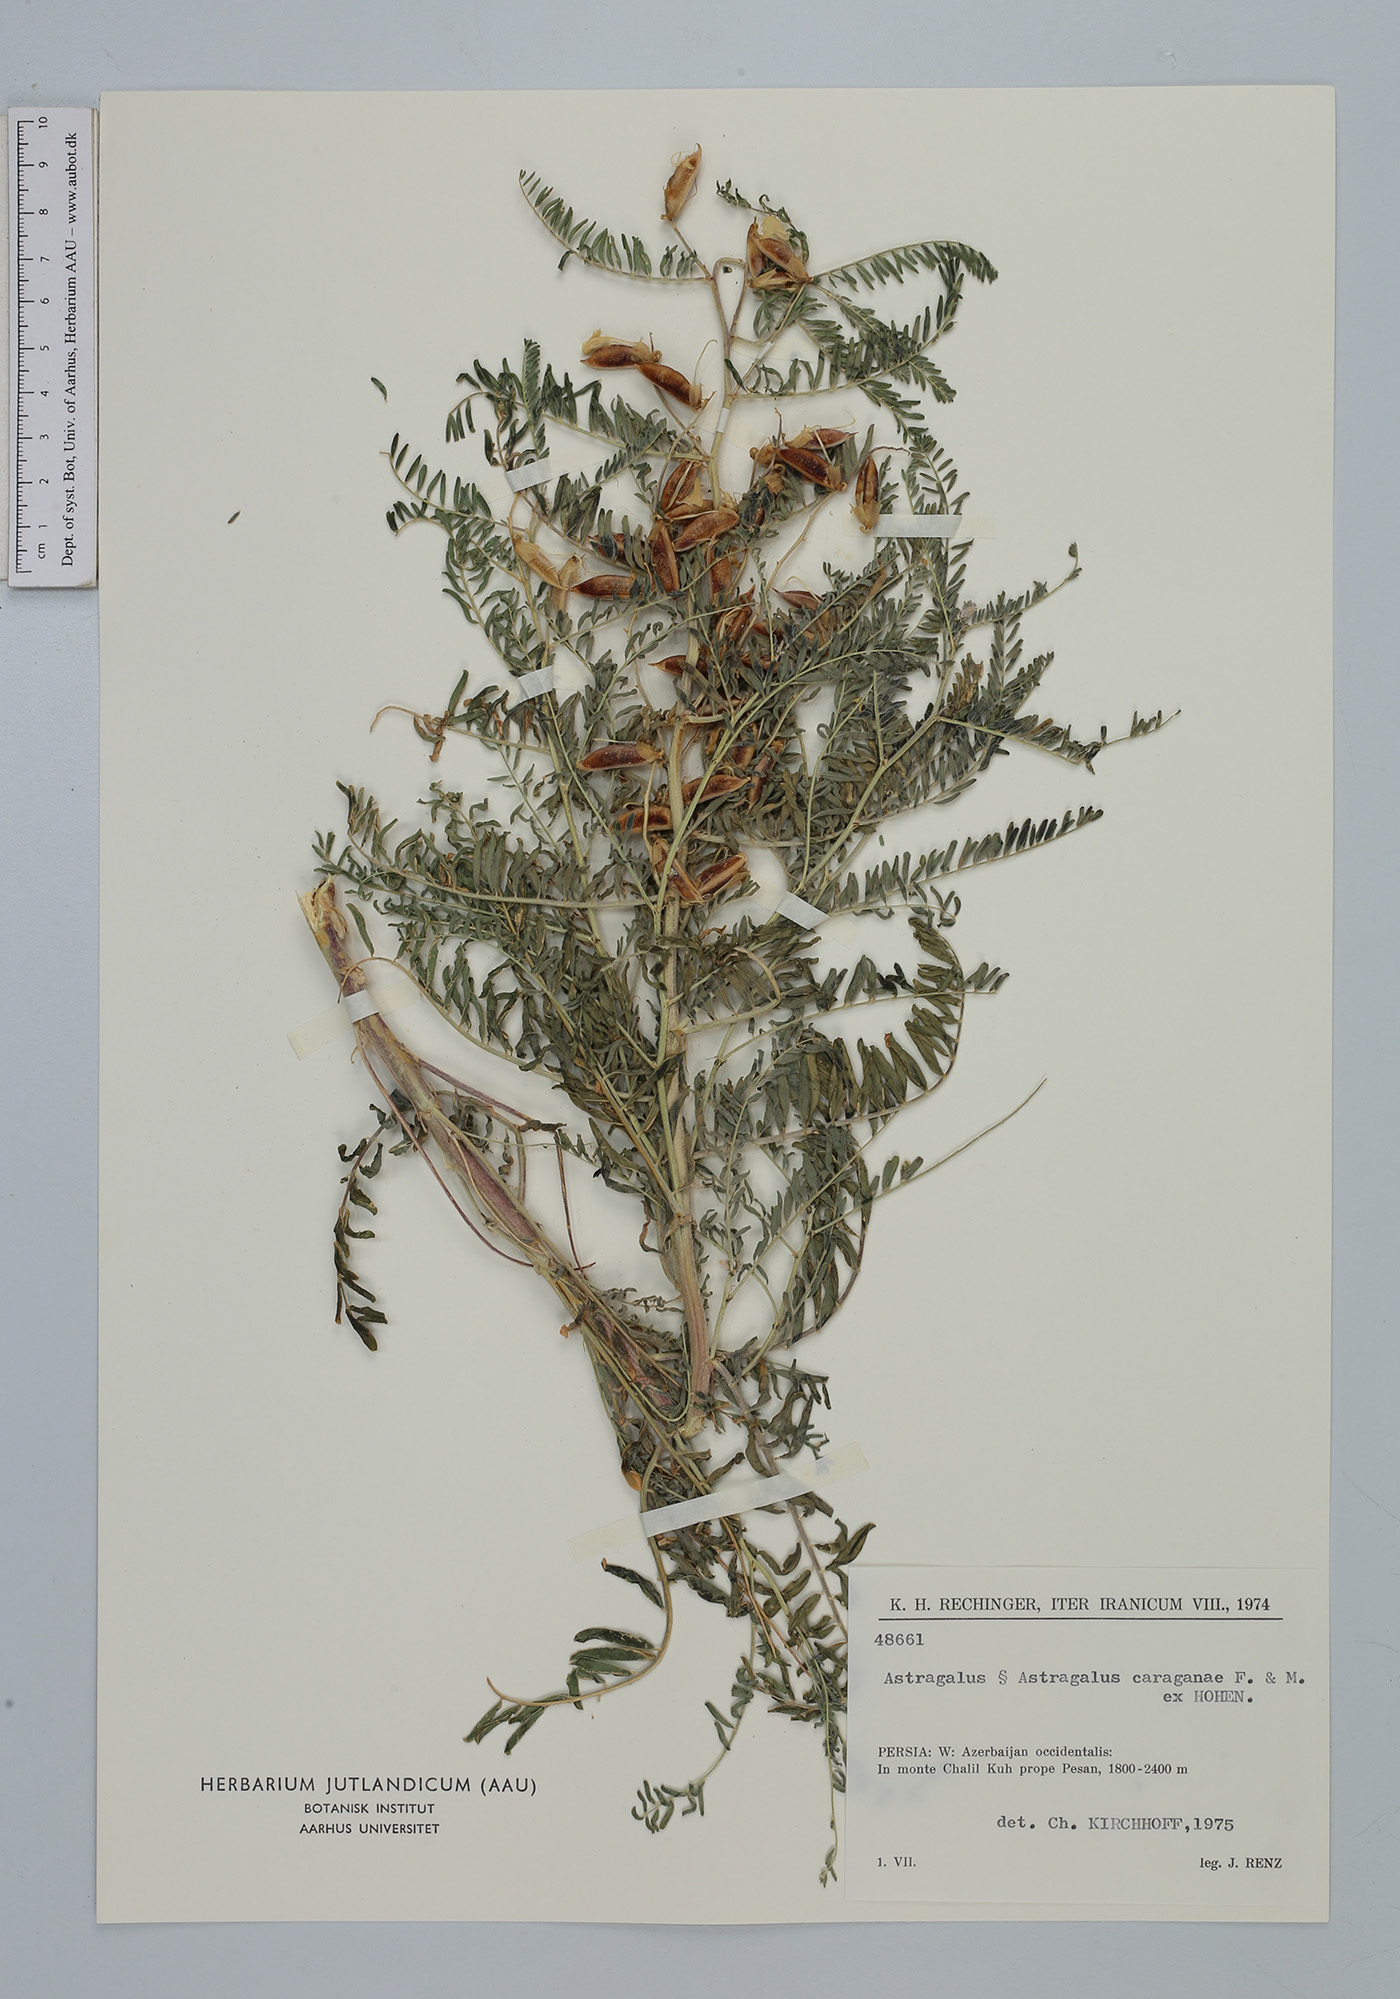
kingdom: Plantae
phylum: Tracheophyta
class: Magnoliopsida
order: Fabales
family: Fabaceae
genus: Astragalus
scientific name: Astragalus caraganae
